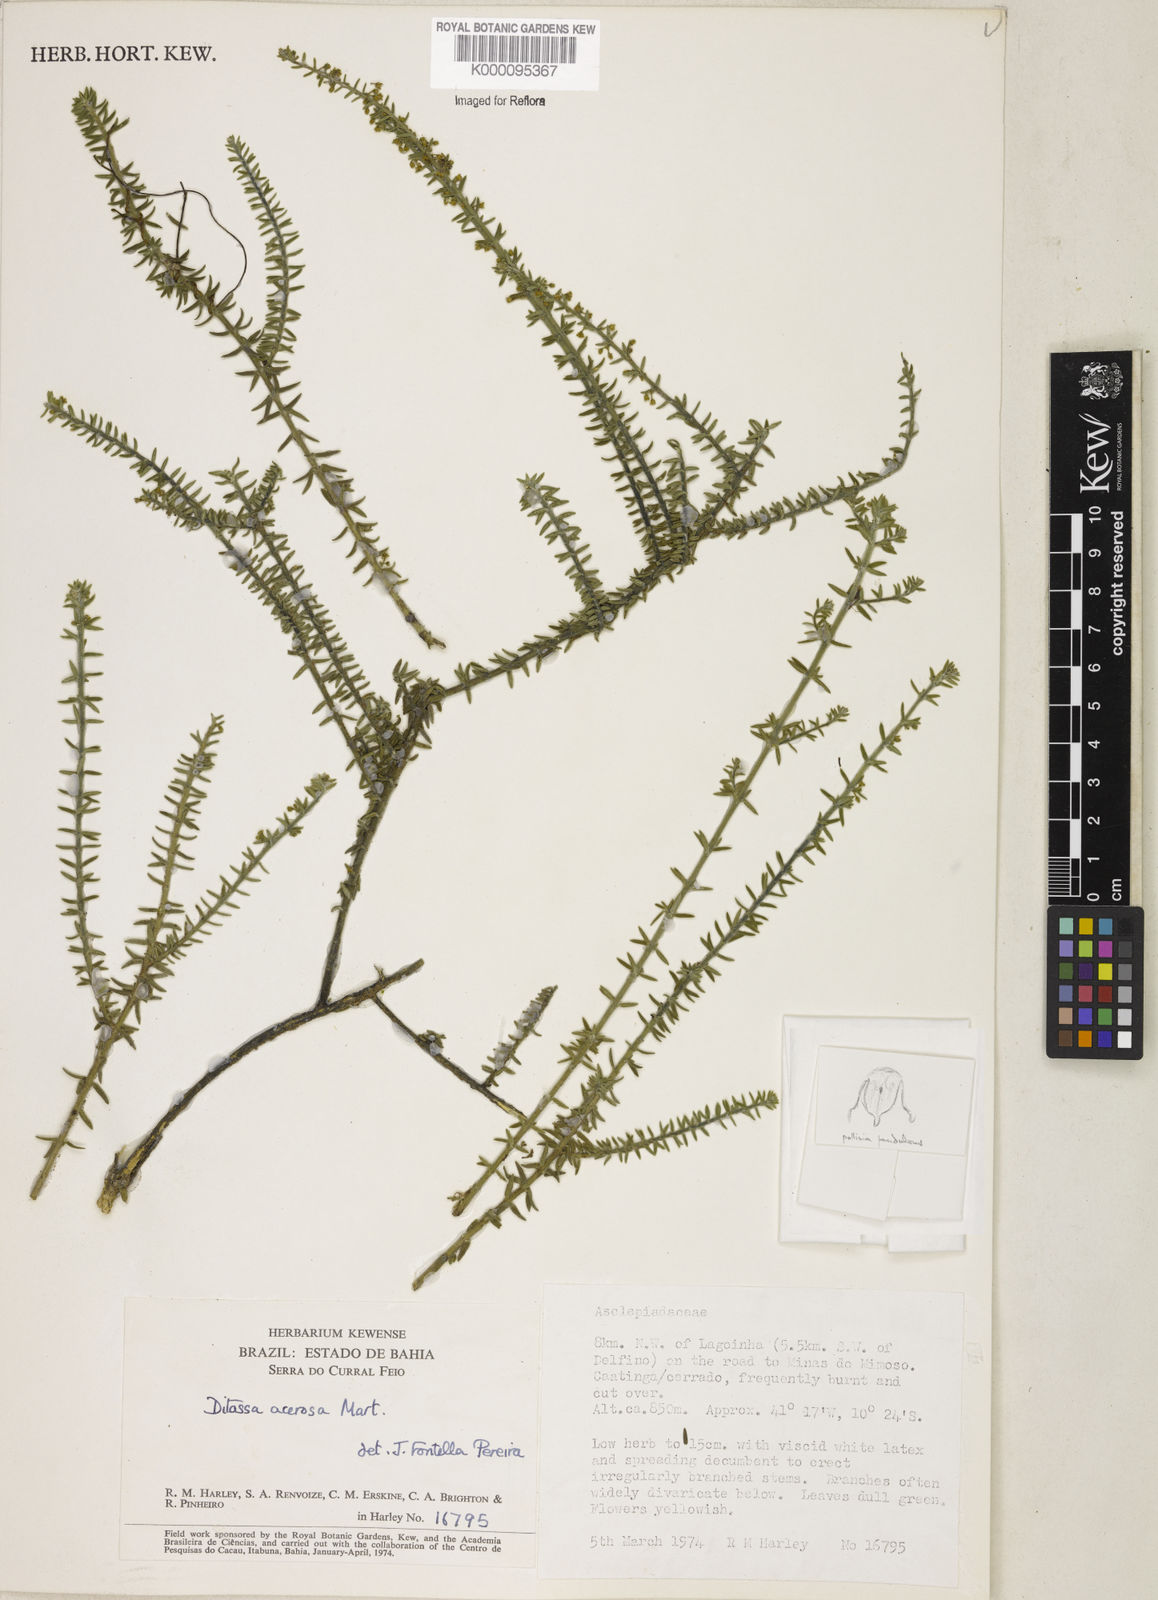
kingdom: Plantae
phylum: Tracheophyta
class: Magnoliopsida
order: Gentianales
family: Apocynaceae
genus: Minaria
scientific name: Minaria acerosa
